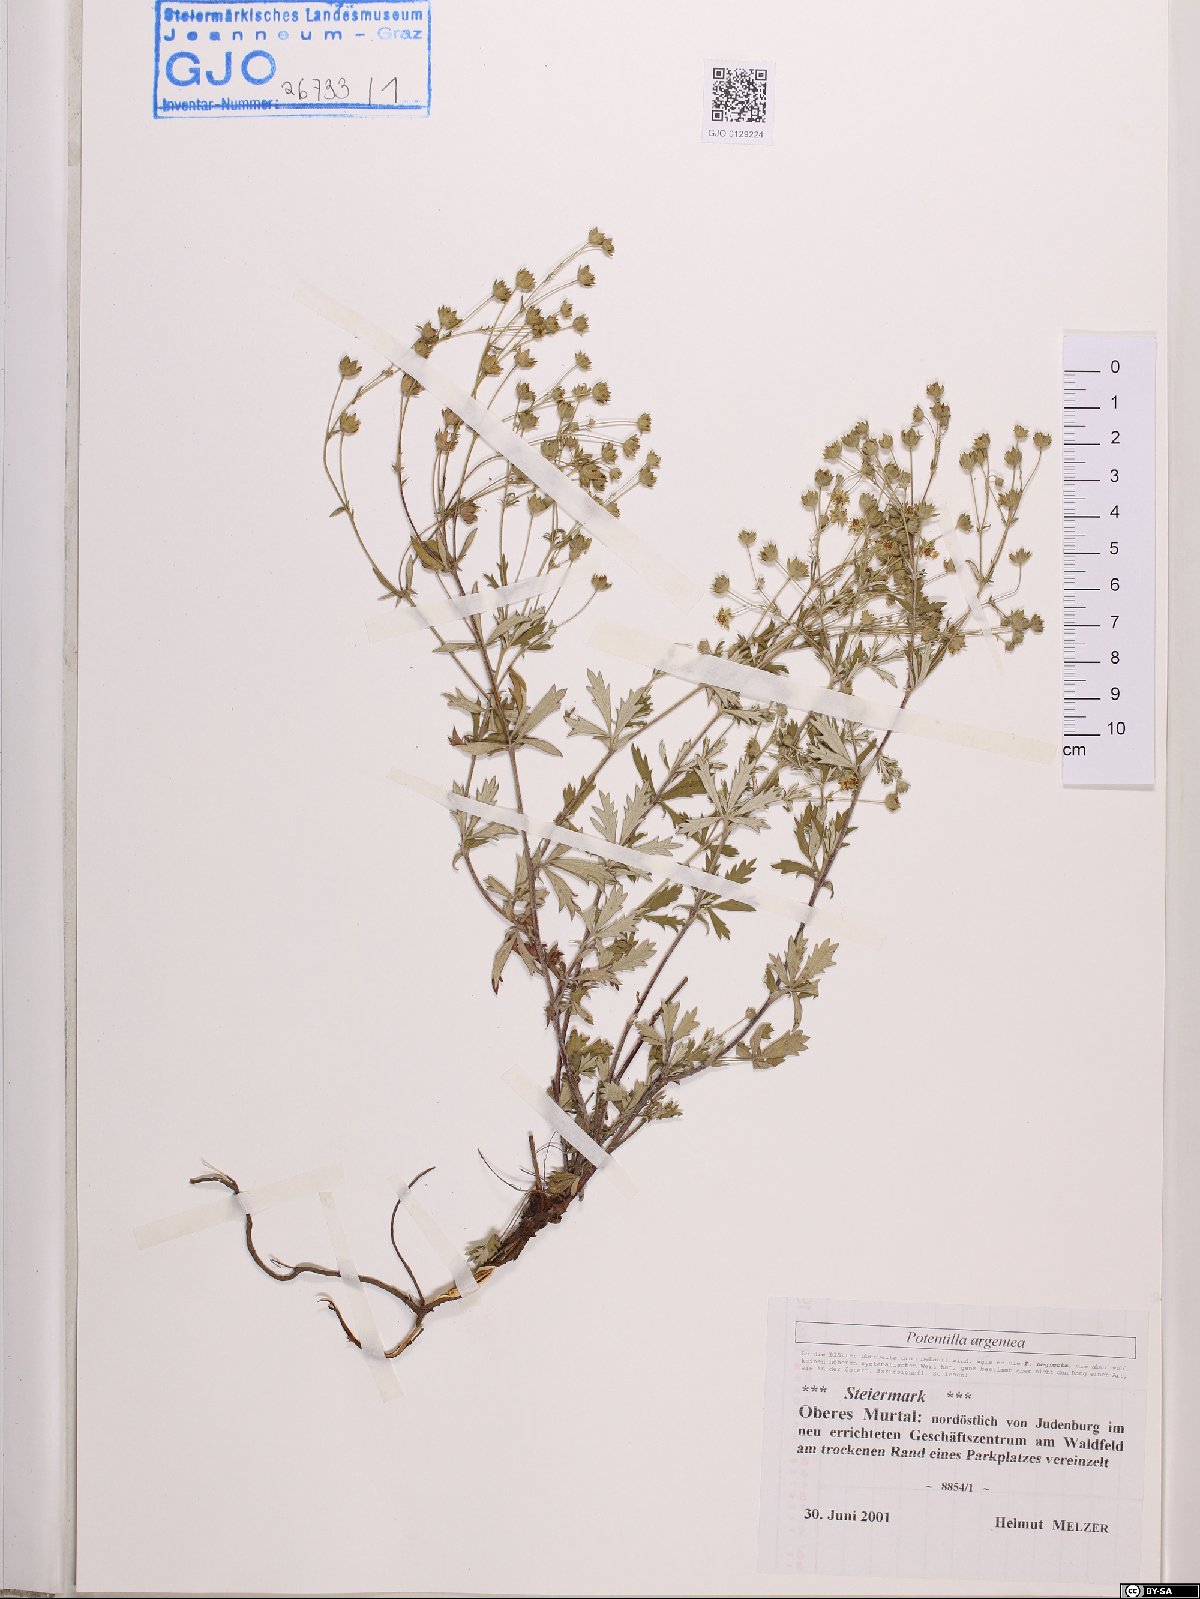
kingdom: Plantae
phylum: Tracheophyta
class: Magnoliopsida
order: Rosales
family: Rosaceae
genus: Potentilla
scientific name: Potentilla argentea
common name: Hoary cinquefoil
